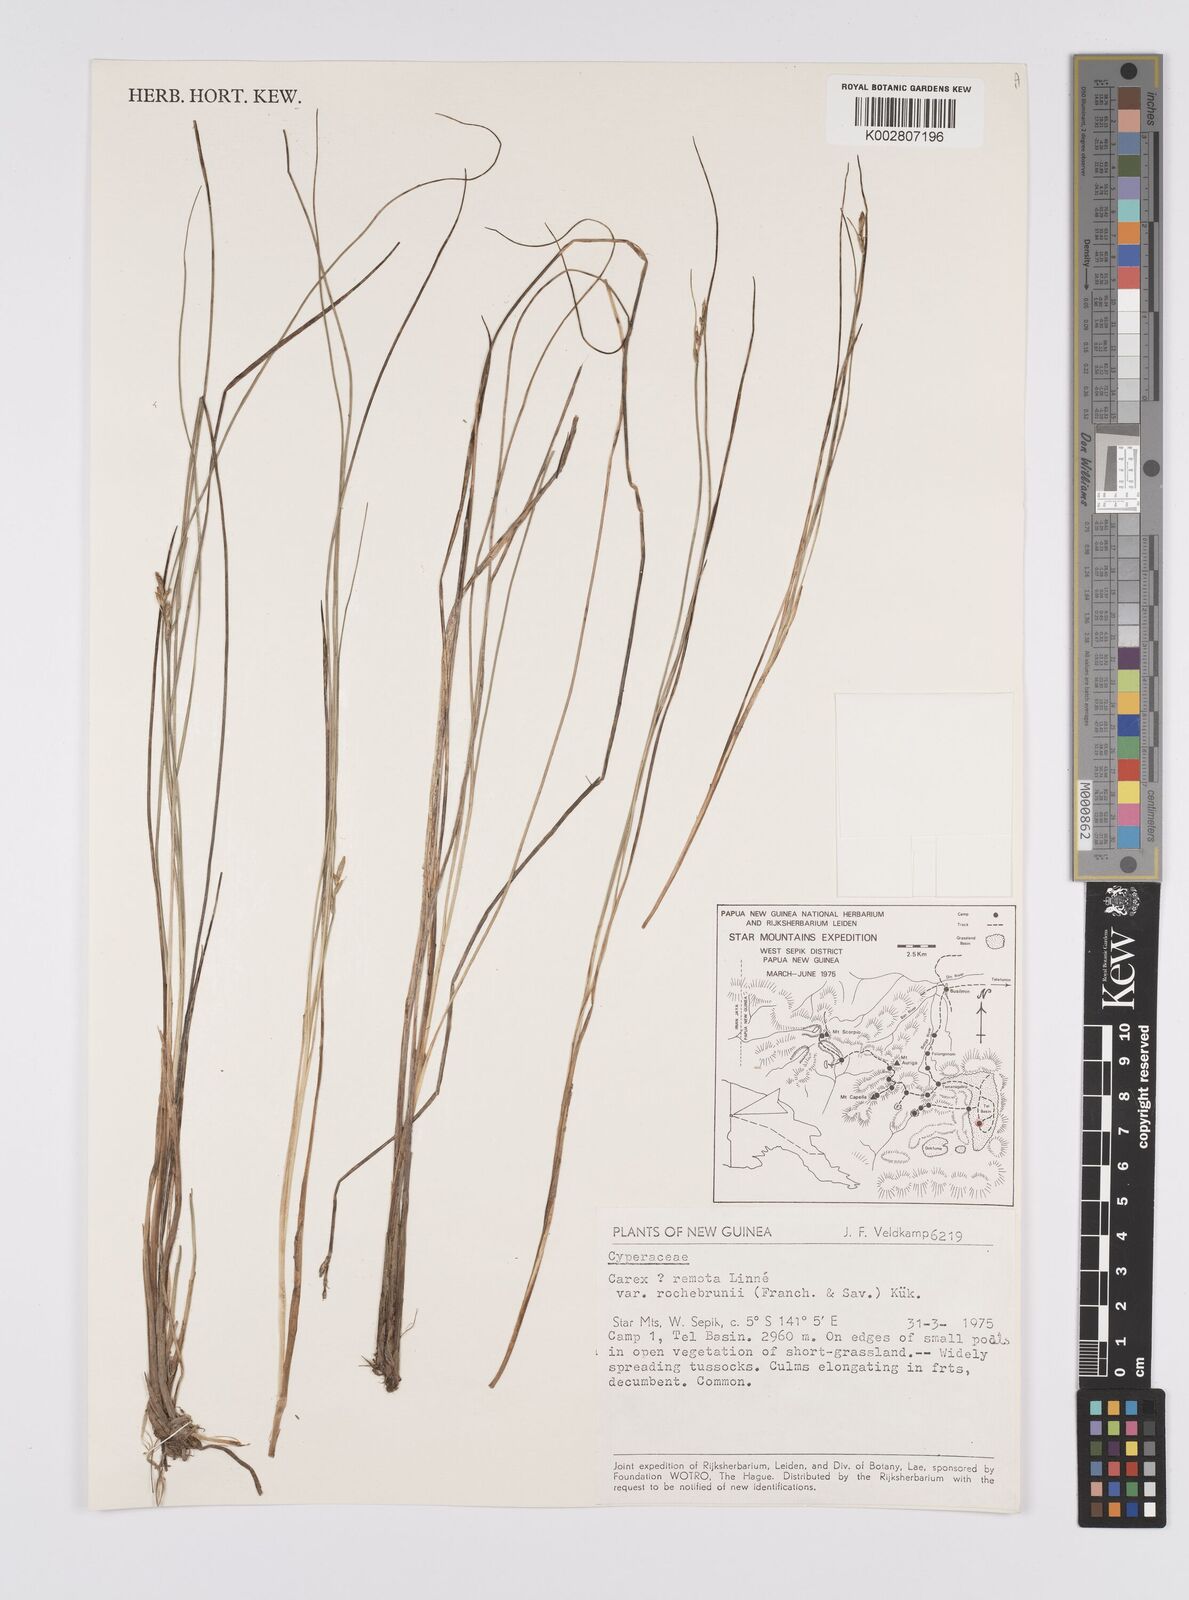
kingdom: Plantae
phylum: Tracheophyta
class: Liliopsida
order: Poales
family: Cyperaceae
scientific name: Cyperaceae
